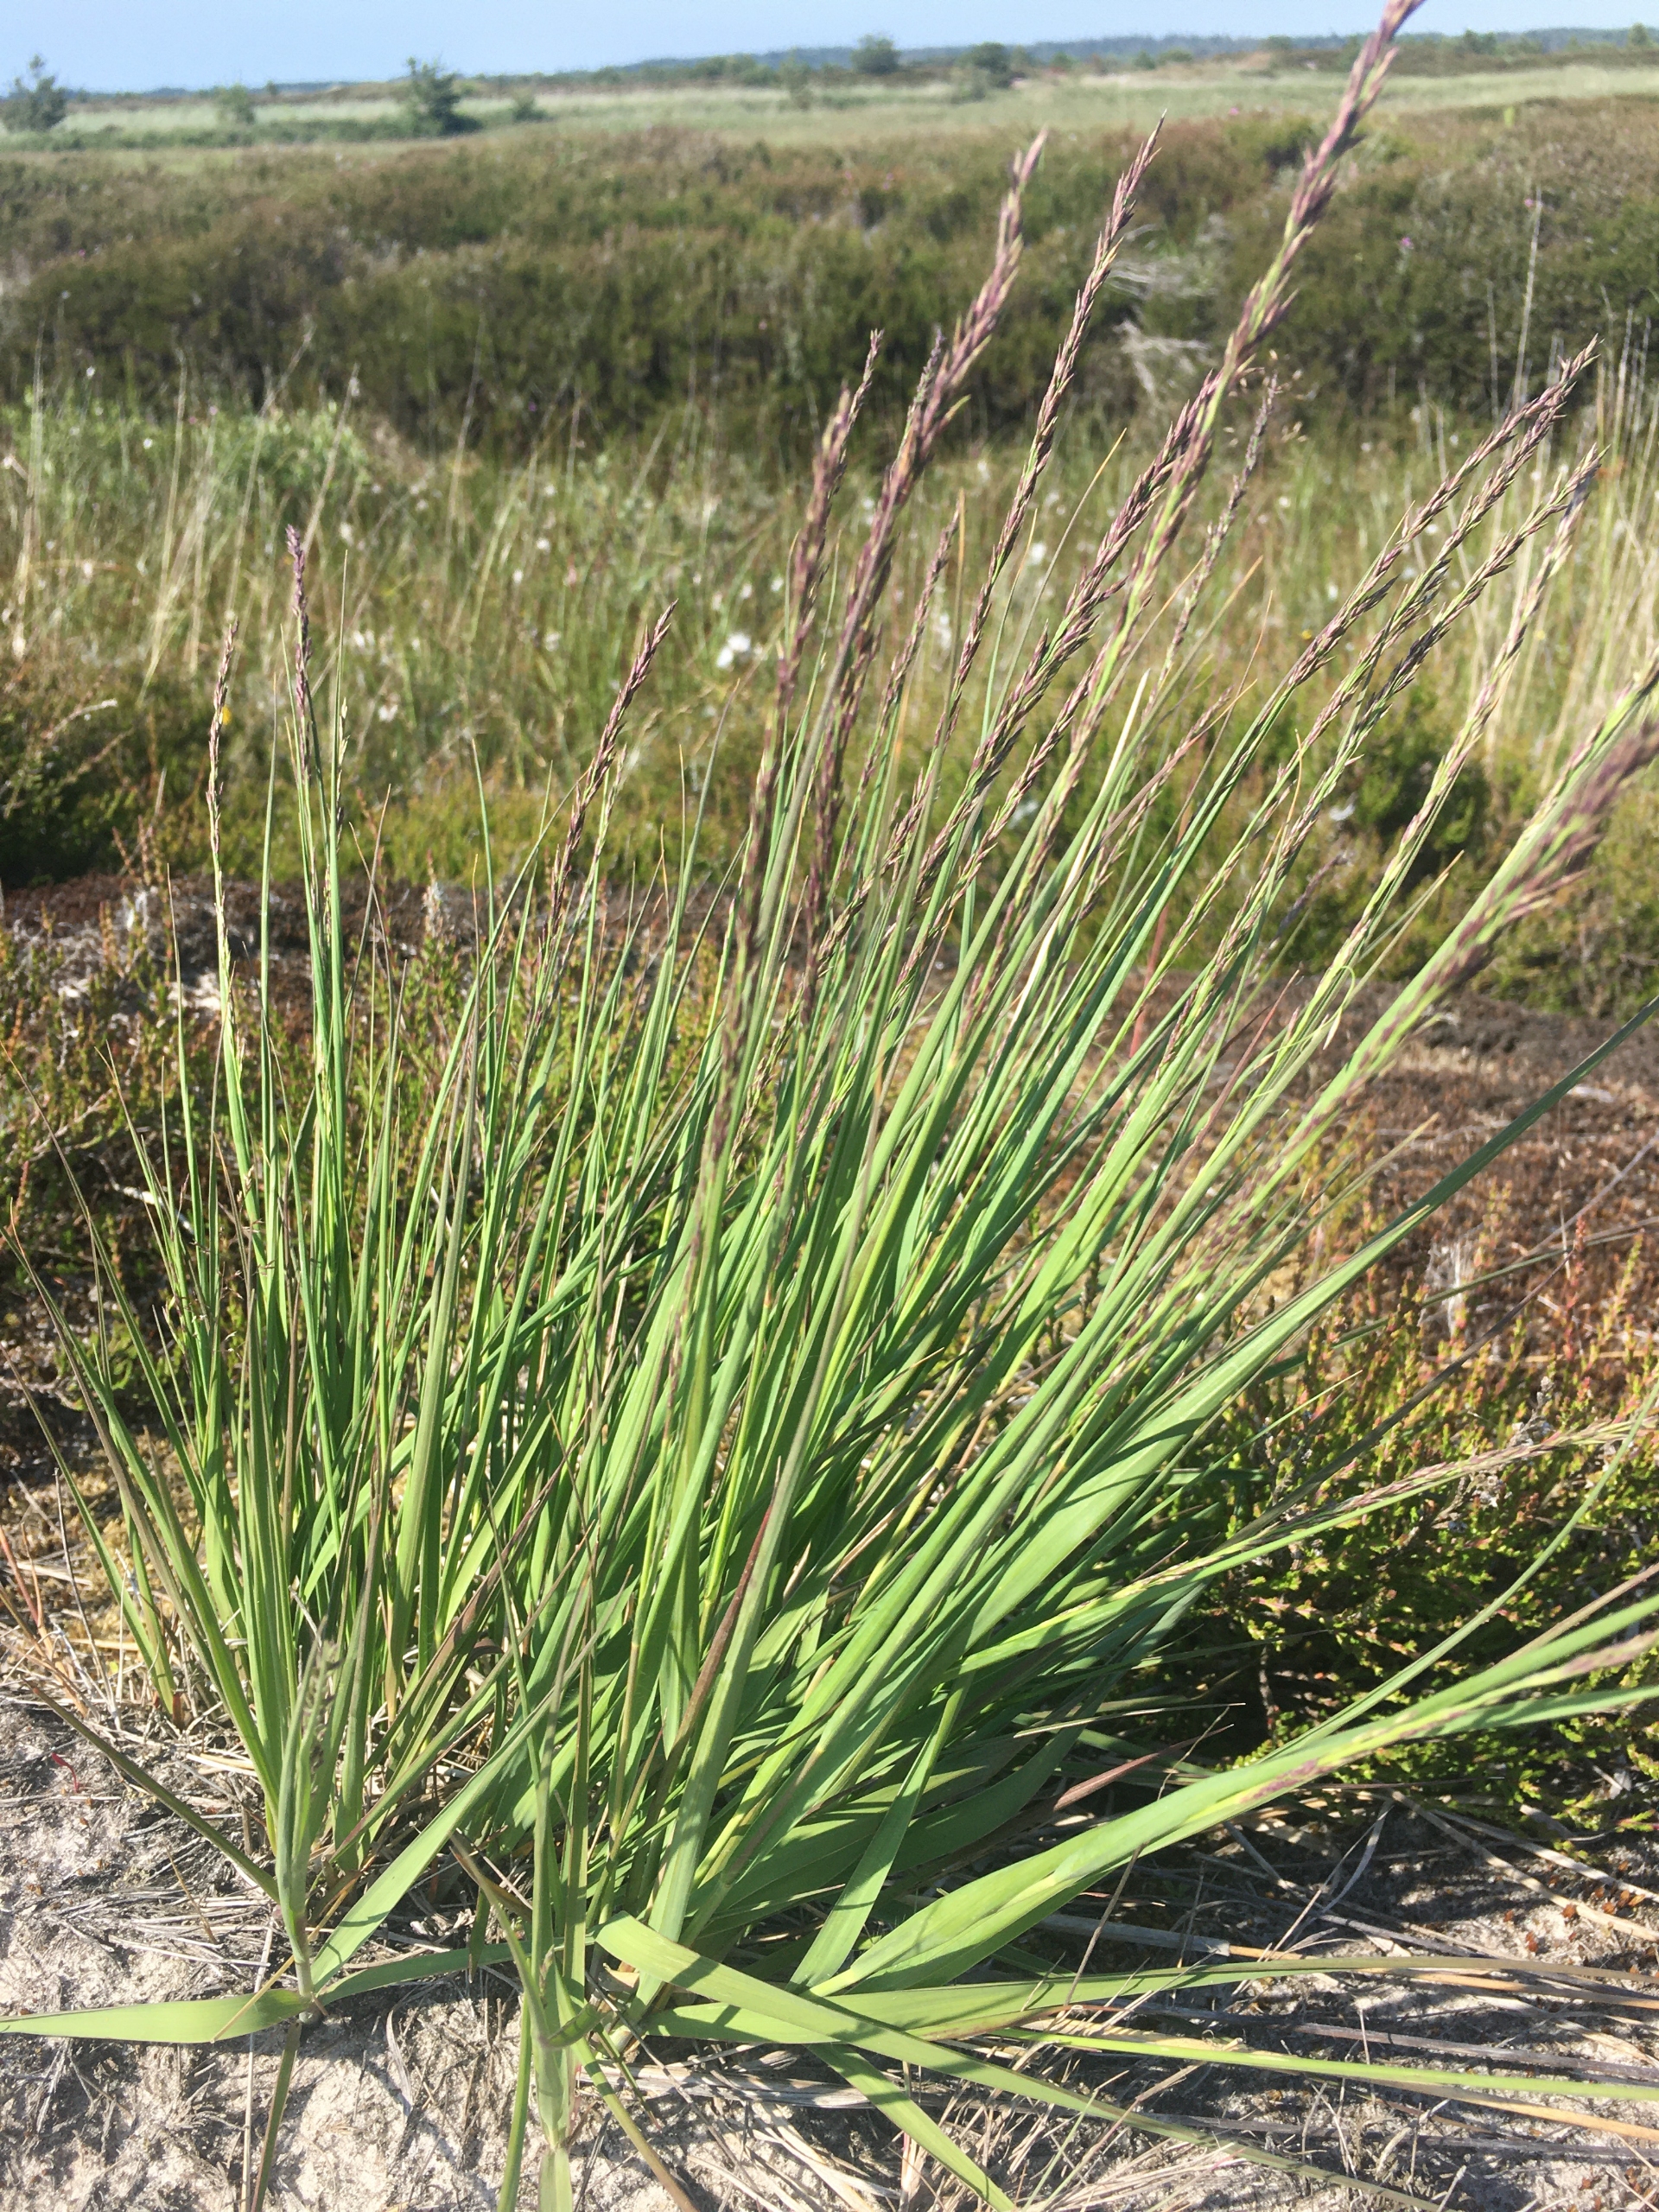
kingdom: Plantae
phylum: Tracheophyta
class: Liliopsida
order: Poales
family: Poaceae
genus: Molinia
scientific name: Molinia caerulea
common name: Blåtop
